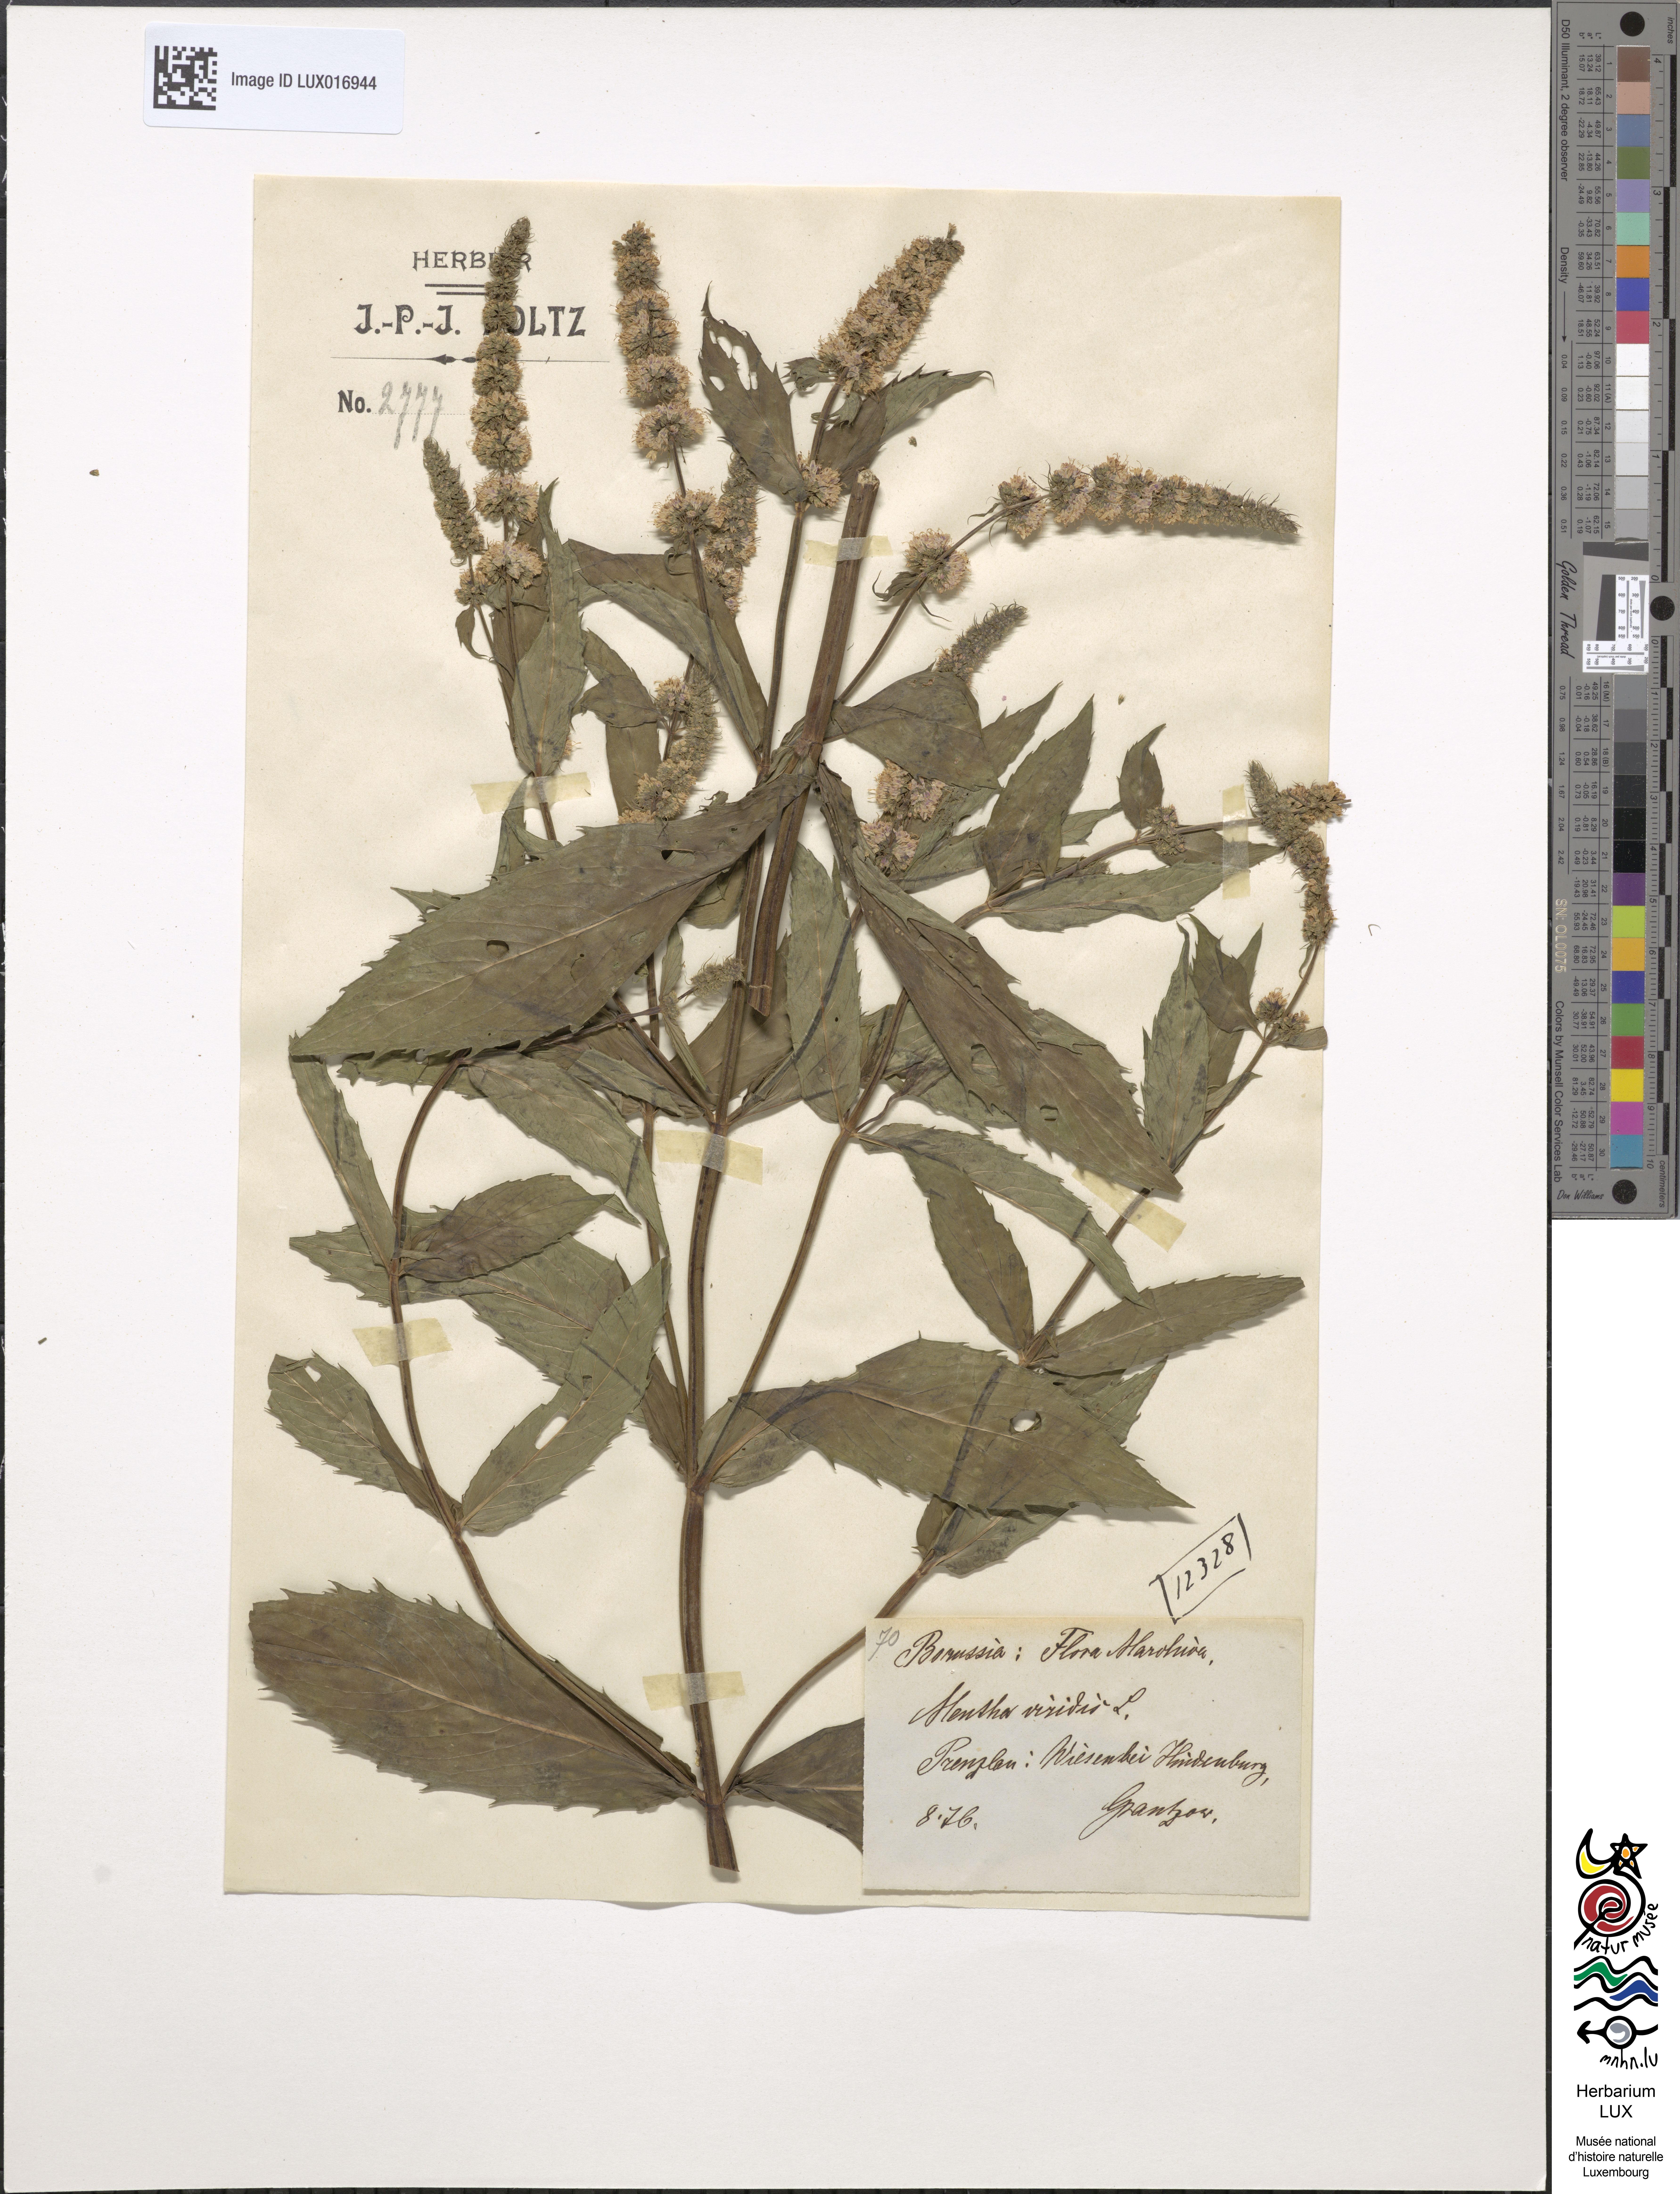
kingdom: Plantae
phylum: Tracheophyta
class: Magnoliopsida
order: Lamiales
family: Lamiaceae
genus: Mentha
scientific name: Mentha spicata
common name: Spearmint
